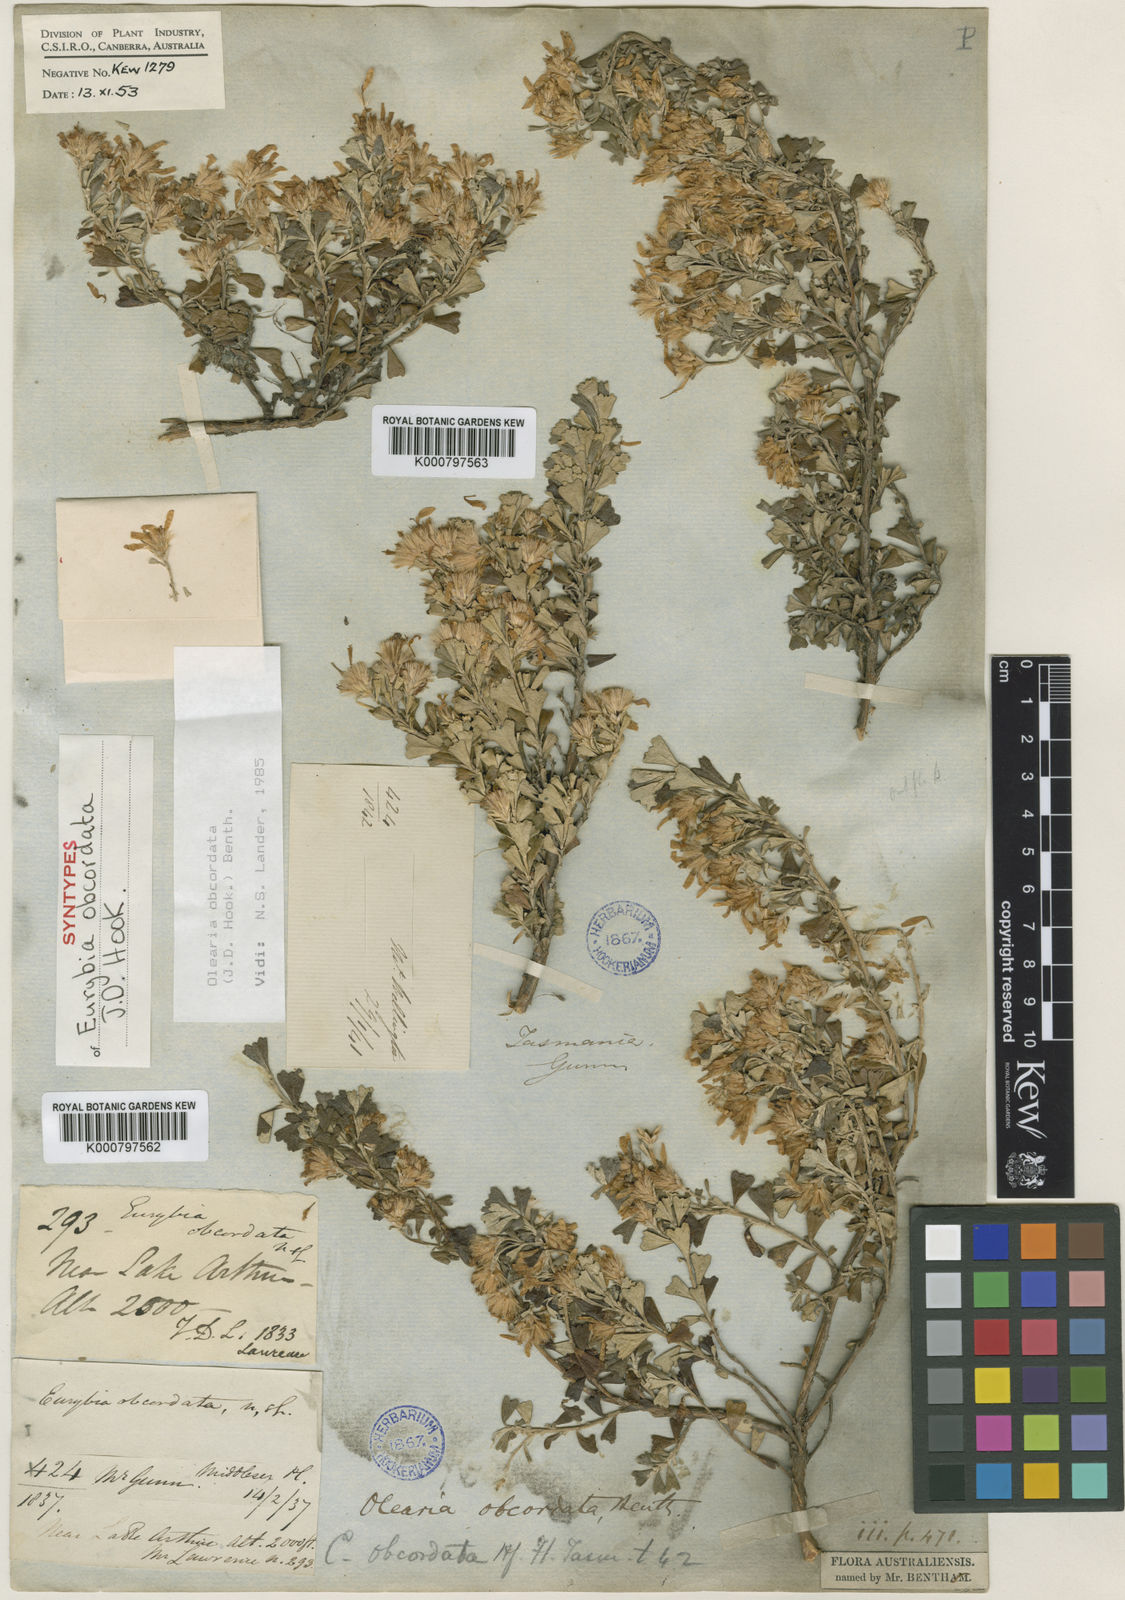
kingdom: Plantae
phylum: Tracheophyta
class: Magnoliopsida
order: Asterales
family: Asteraceae
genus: Olearia
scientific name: Olearia obcordata
